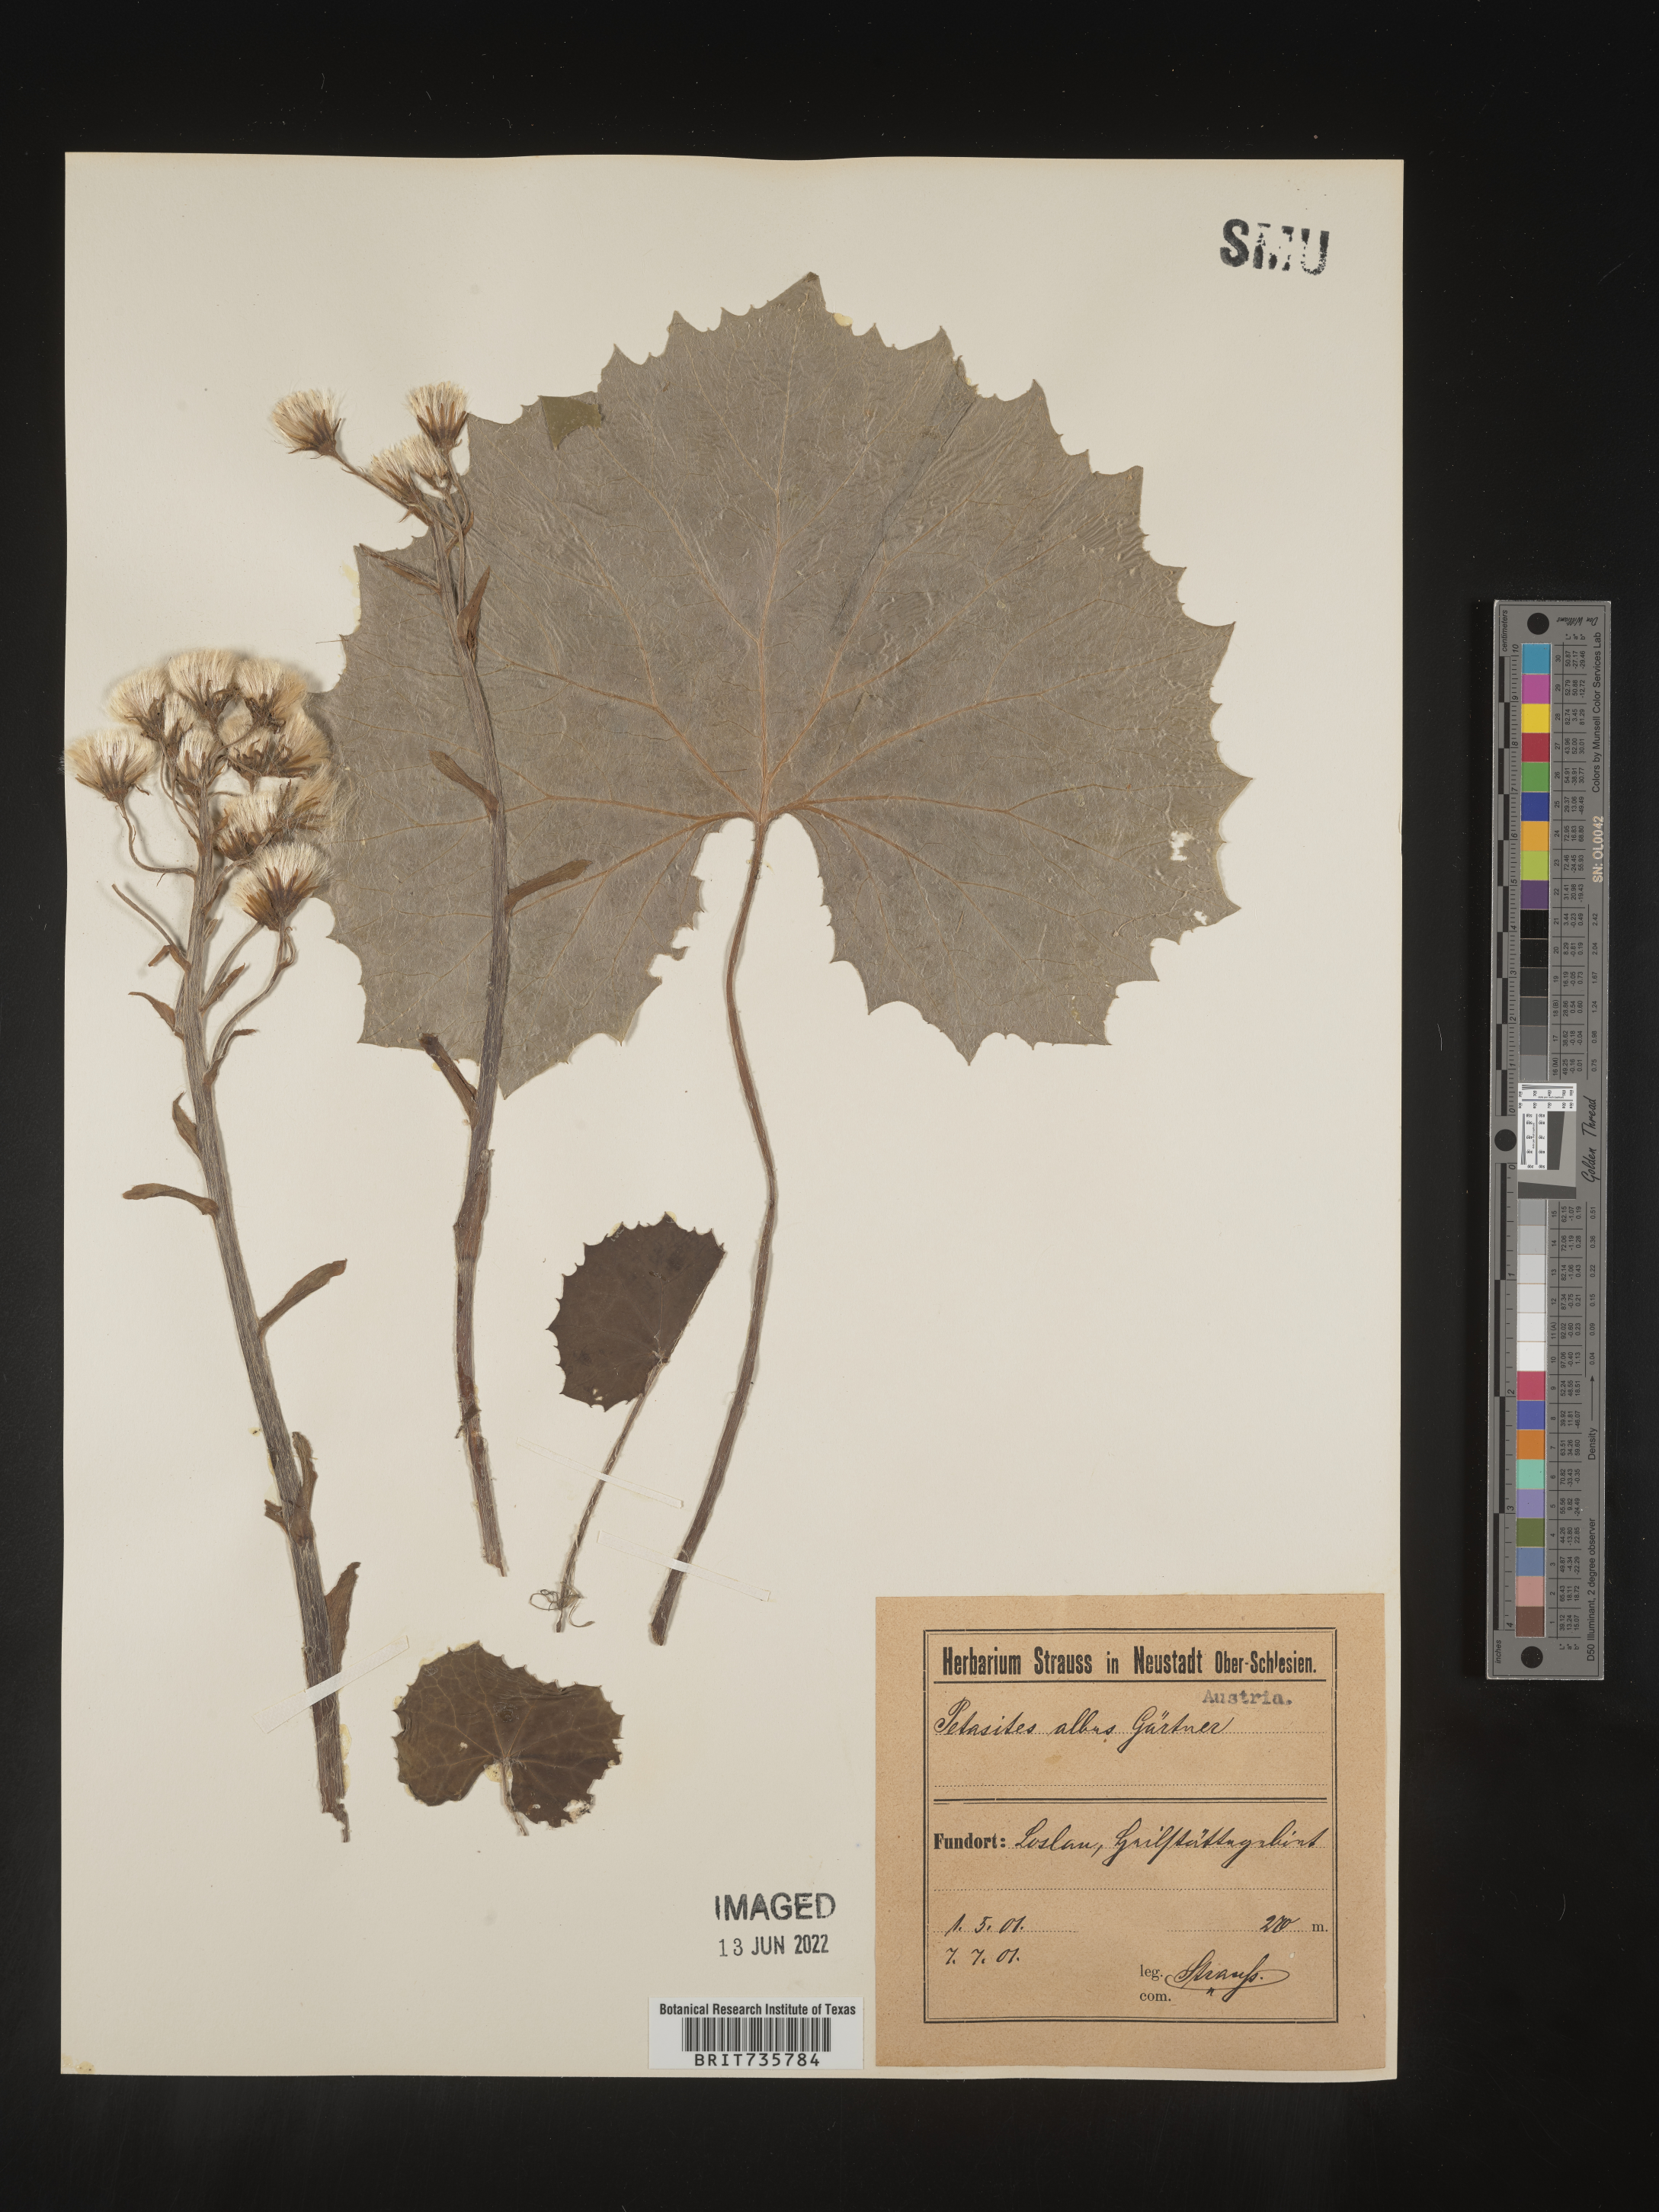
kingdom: Plantae
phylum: Tracheophyta
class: Magnoliopsida
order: Asterales
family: Asteraceae
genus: Petasites
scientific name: Petasites
